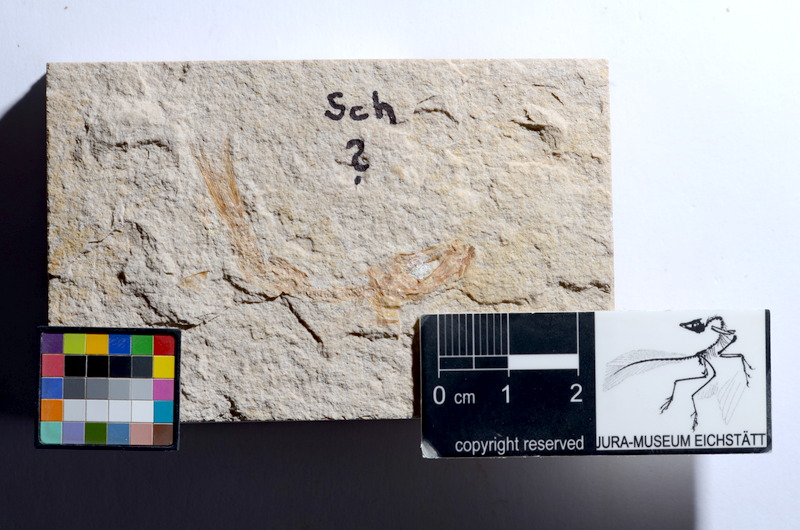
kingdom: Animalia
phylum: Chordata
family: Ascalaboidae
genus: Tharsis
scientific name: Tharsis dubius
